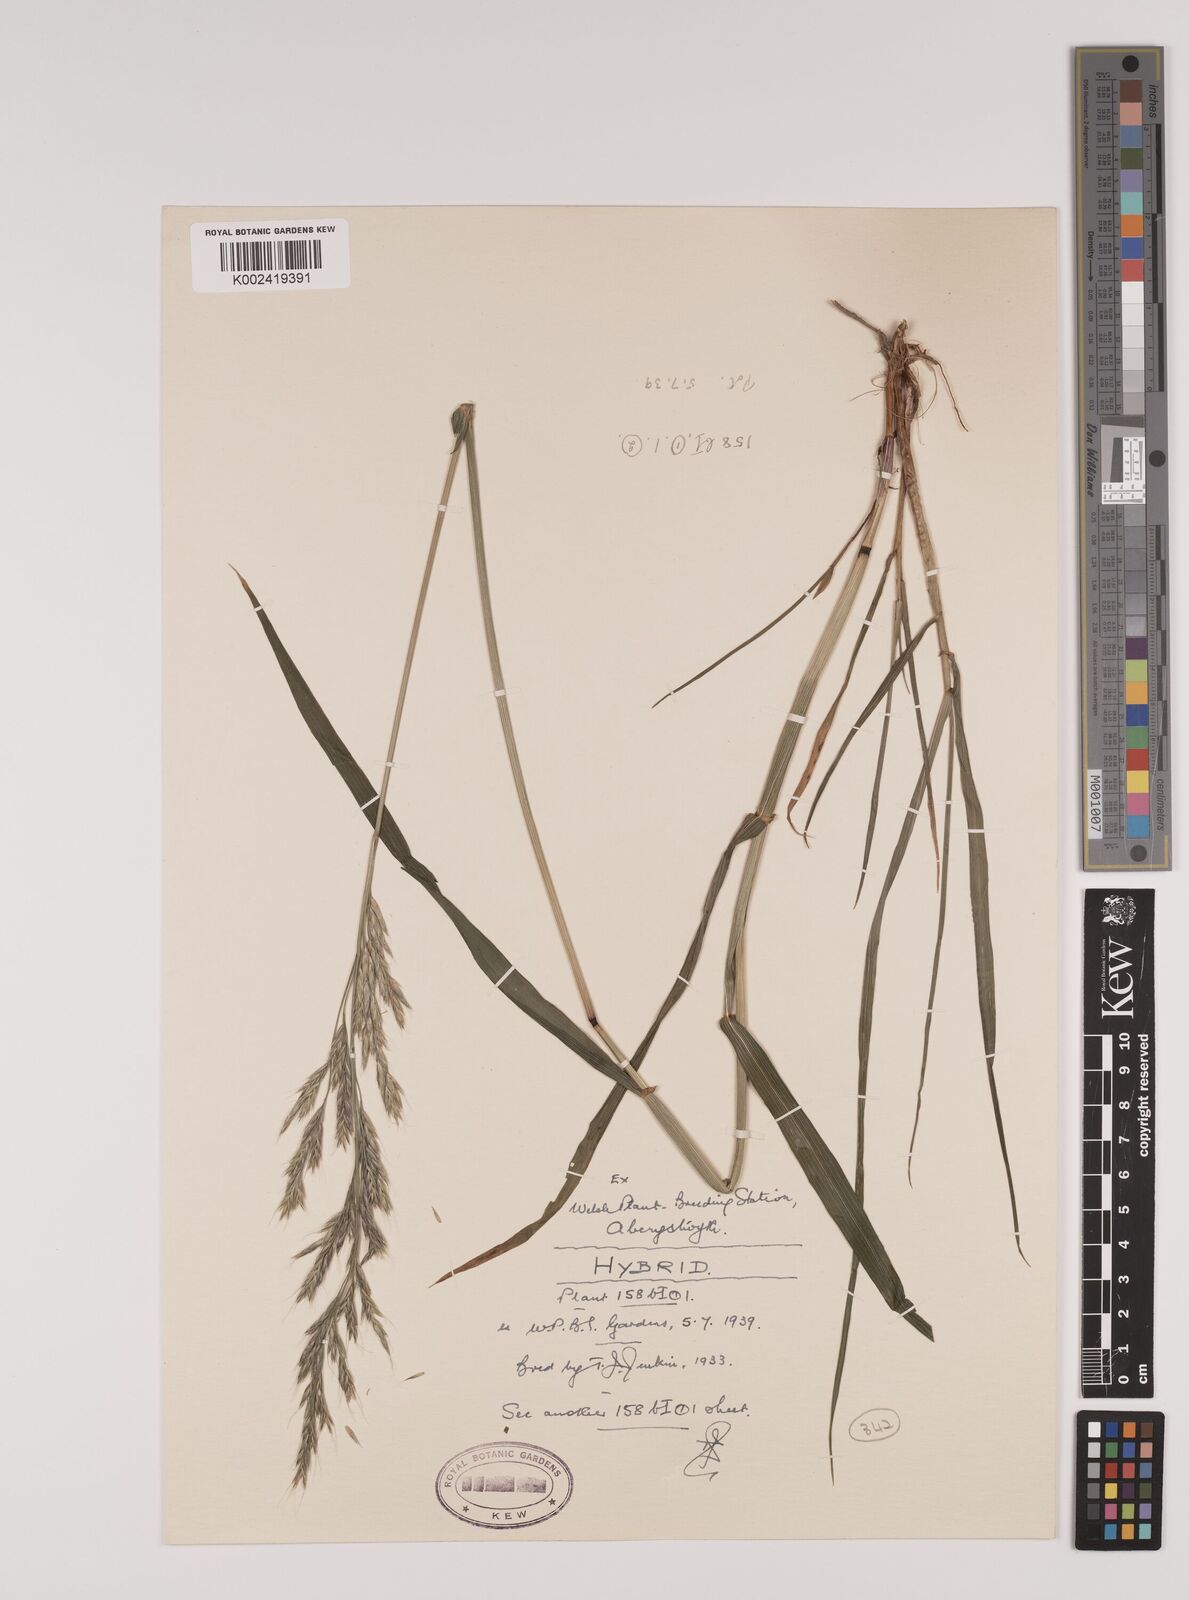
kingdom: Plantae
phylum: Tracheophyta
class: Liliopsida
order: Poales
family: Poaceae
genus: Lolium
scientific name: Lolium giganteum
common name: Giant fescue
